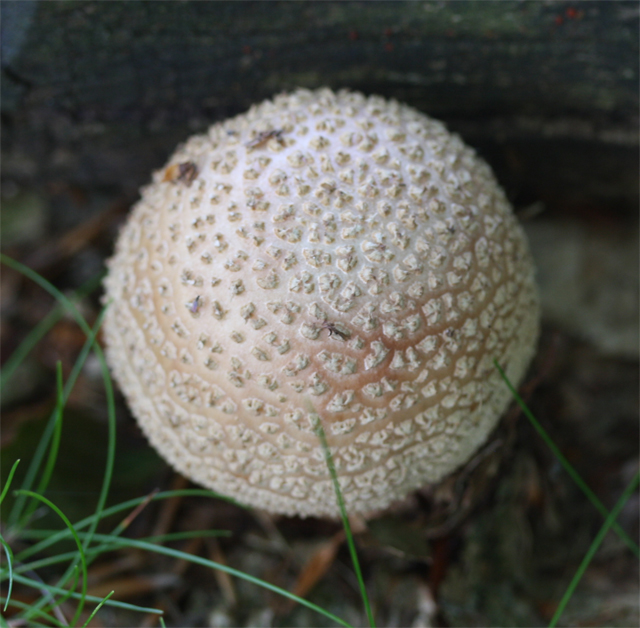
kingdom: Fungi
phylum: Basidiomycota
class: Agaricomycetes
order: Agaricales
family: Amanitaceae
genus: Amanita
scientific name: Amanita rubescens
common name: rødmende fluesvamp
